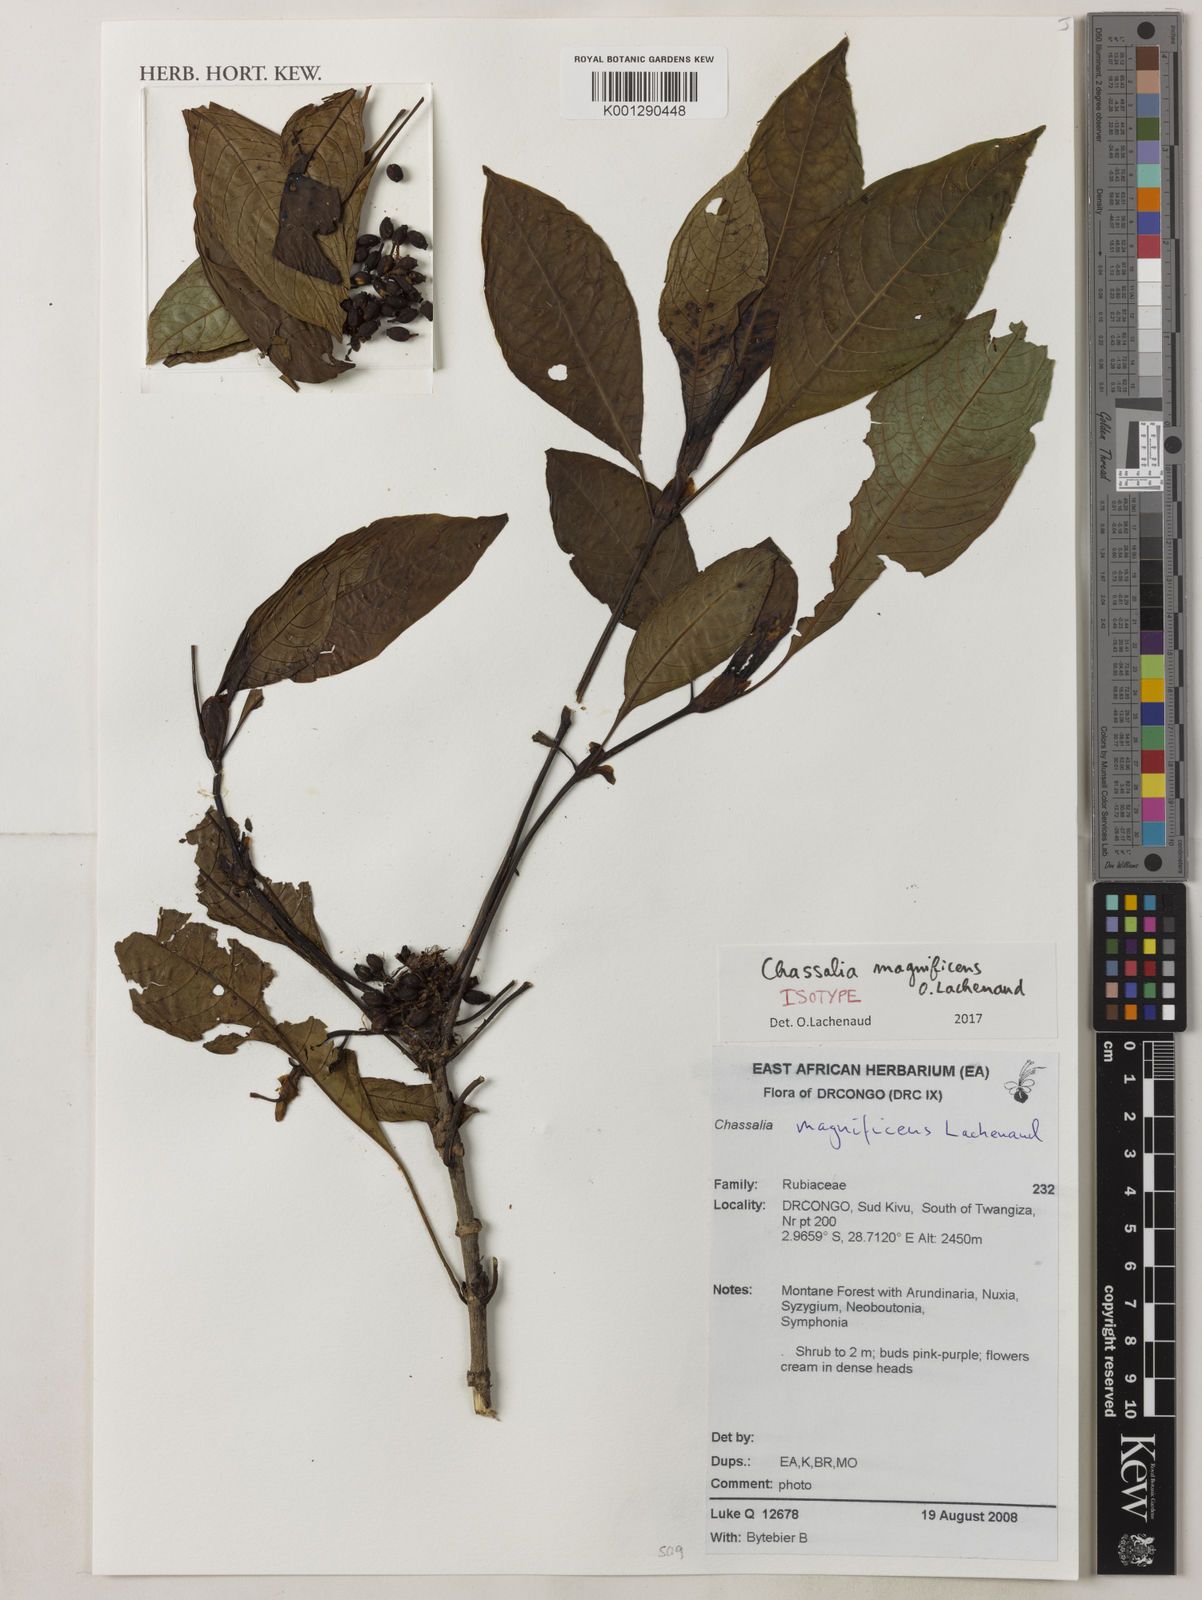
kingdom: Plantae
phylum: Tracheophyta
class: Magnoliopsida
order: Gentianales
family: Rubiaceae
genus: Chassalia
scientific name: Chassalia magnificens
